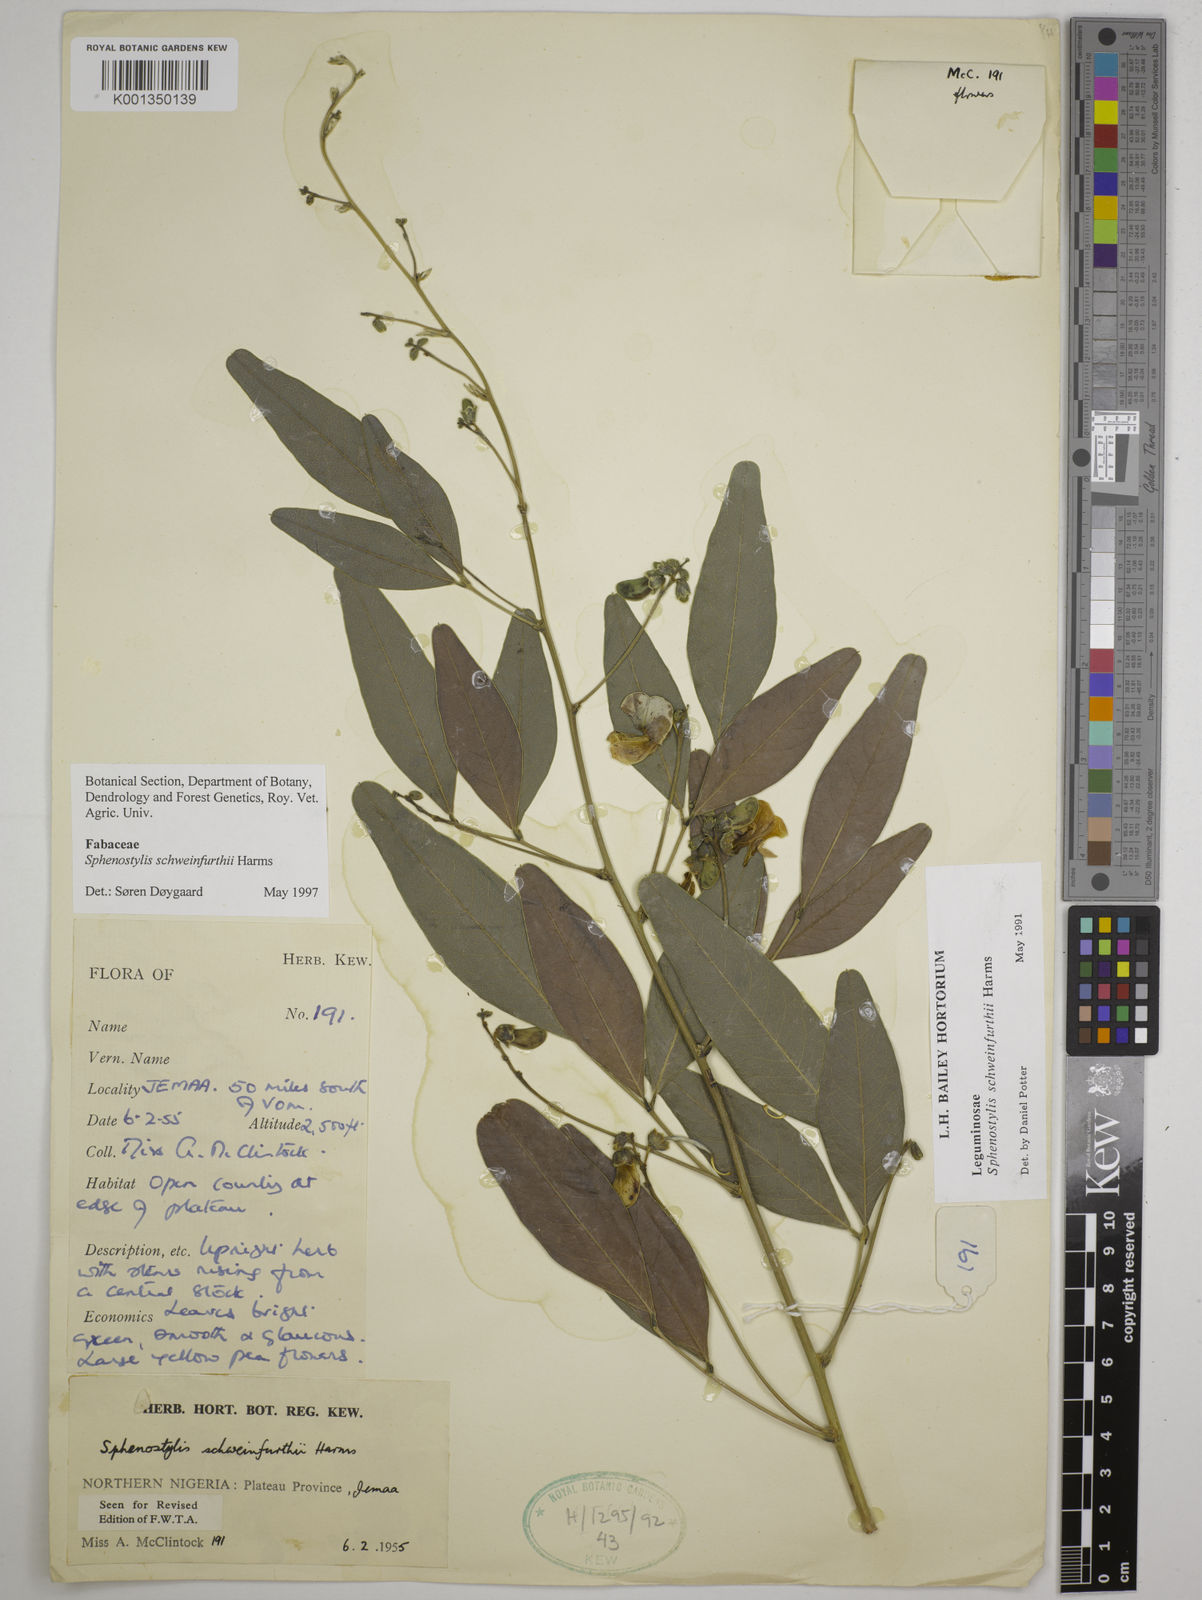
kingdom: Plantae
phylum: Tracheophyta
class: Magnoliopsida
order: Fabales
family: Fabaceae
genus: Sphenostylis
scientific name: Sphenostylis schweinfurthii
